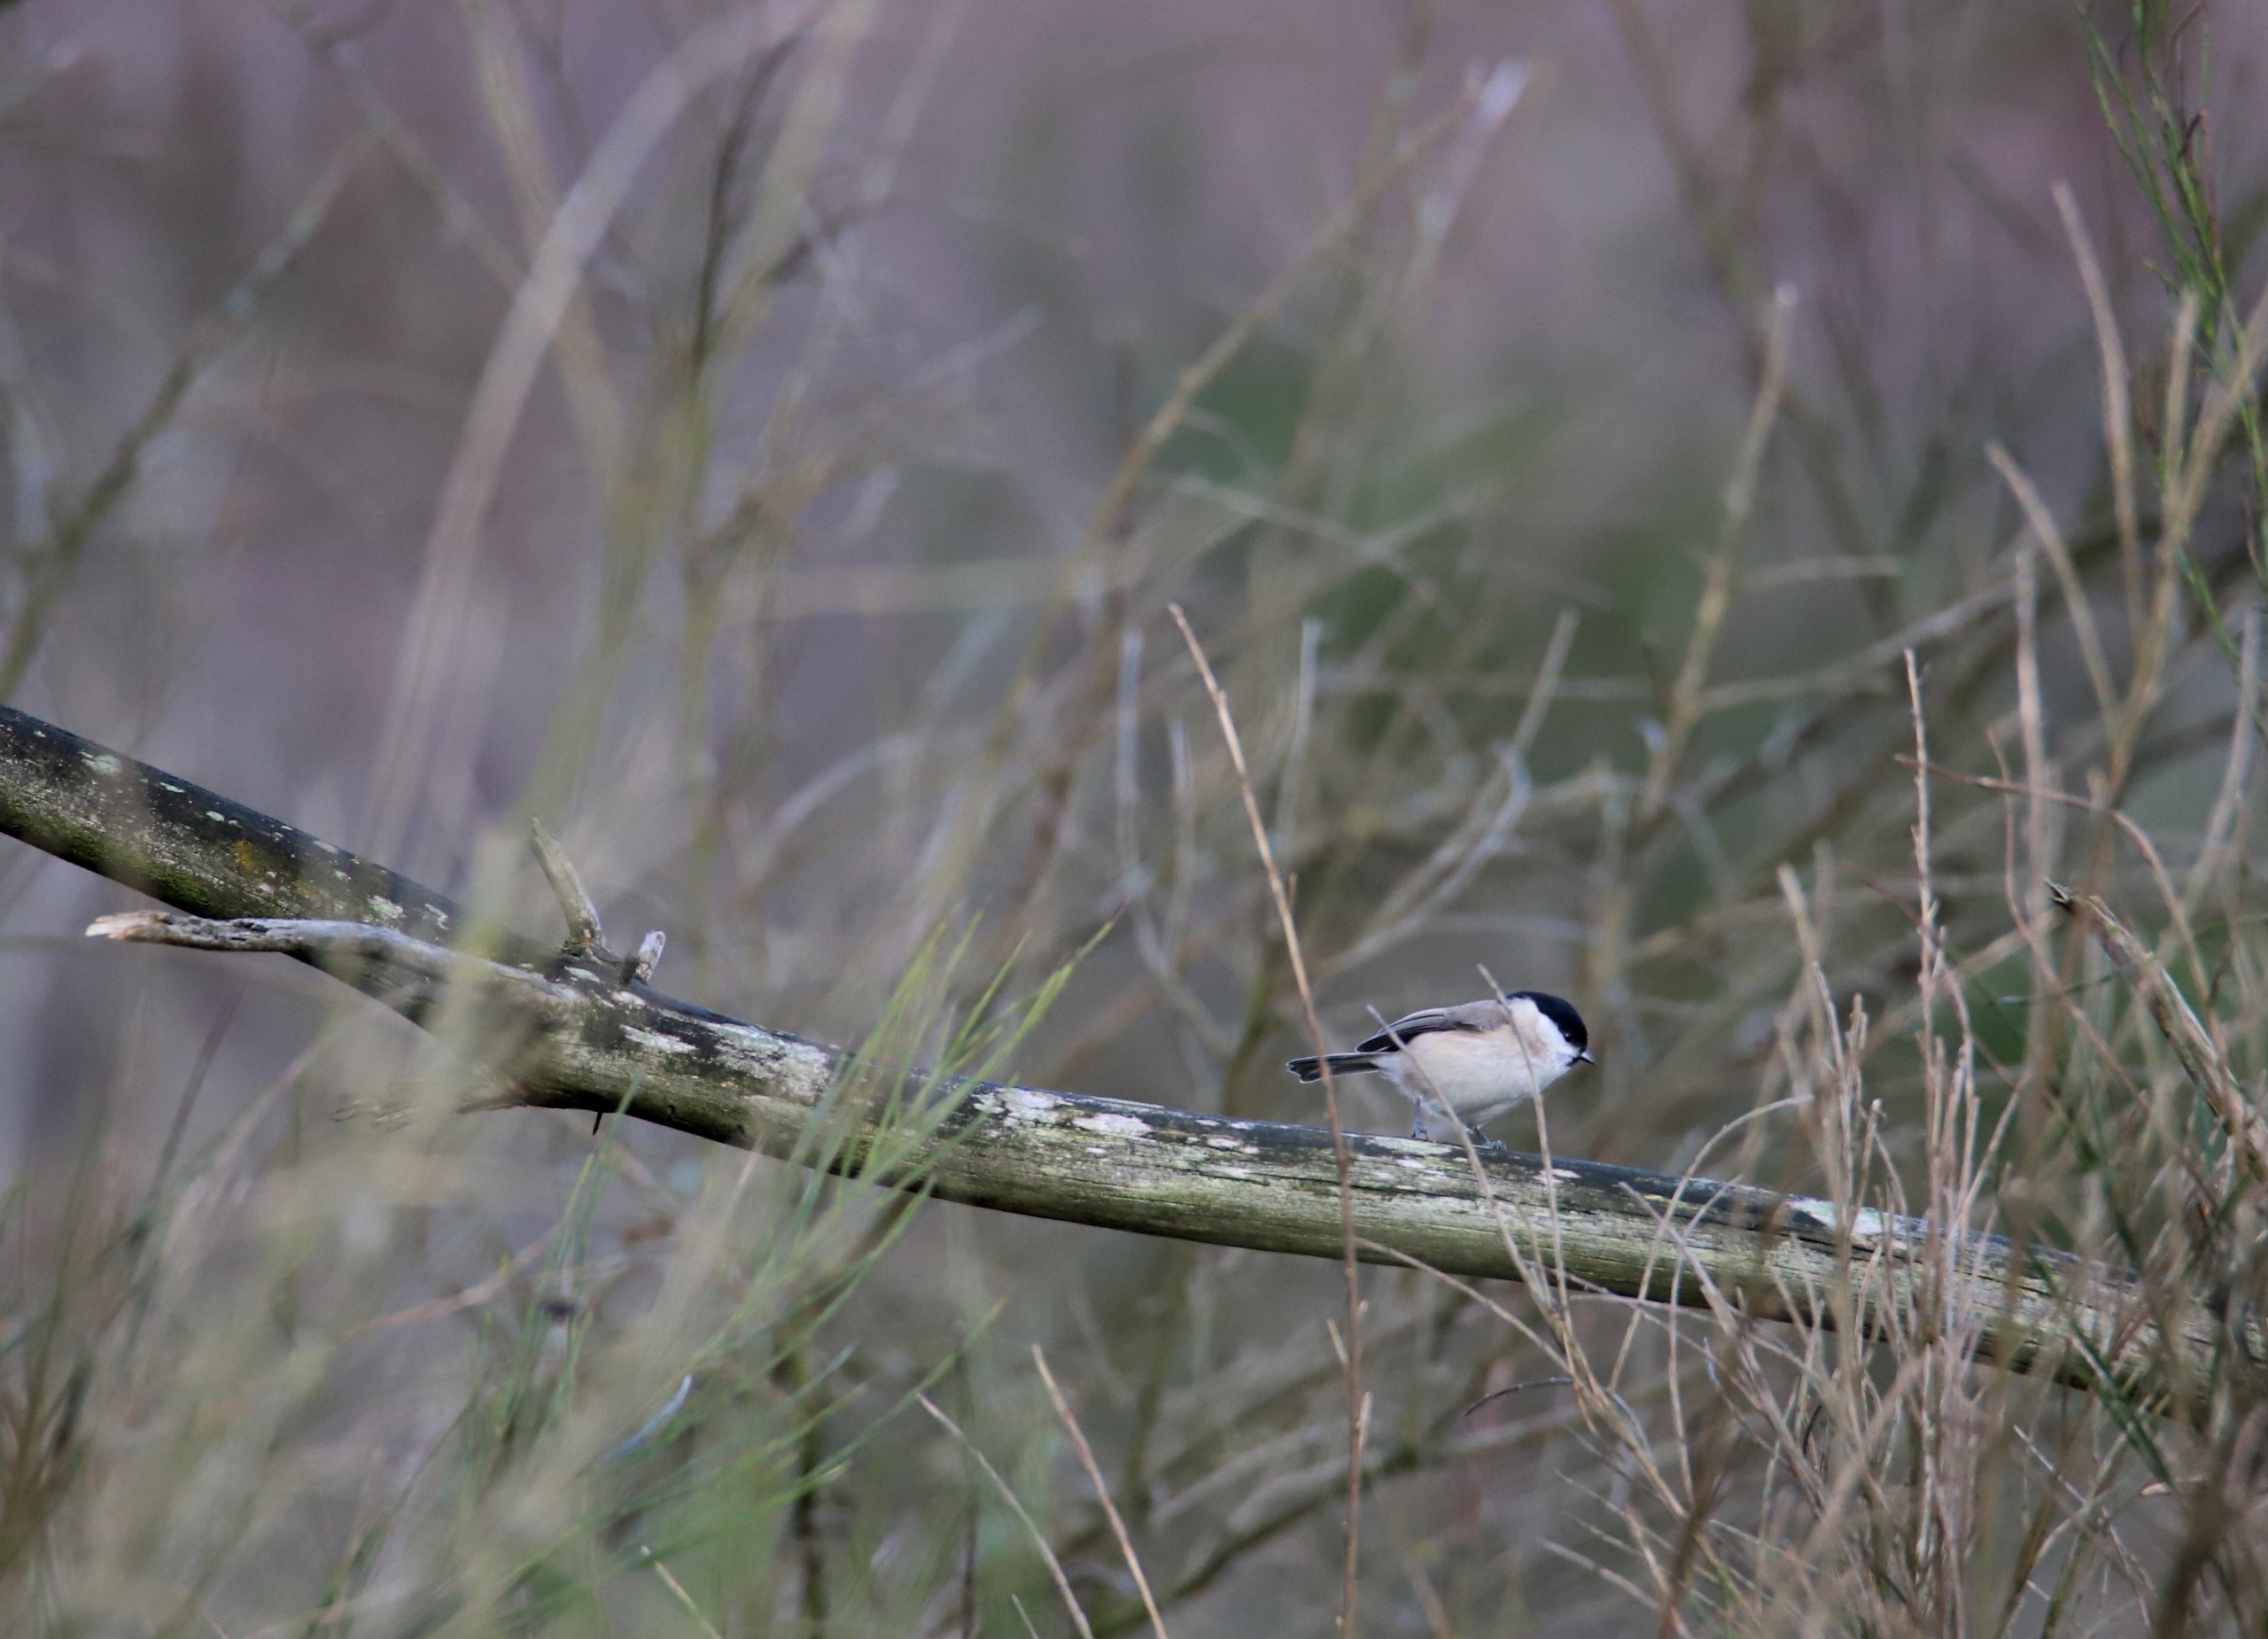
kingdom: Animalia
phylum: Chordata
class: Aves
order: Passeriformes
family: Paridae
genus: Poecile
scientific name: Poecile palustris
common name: Sumpmejse
